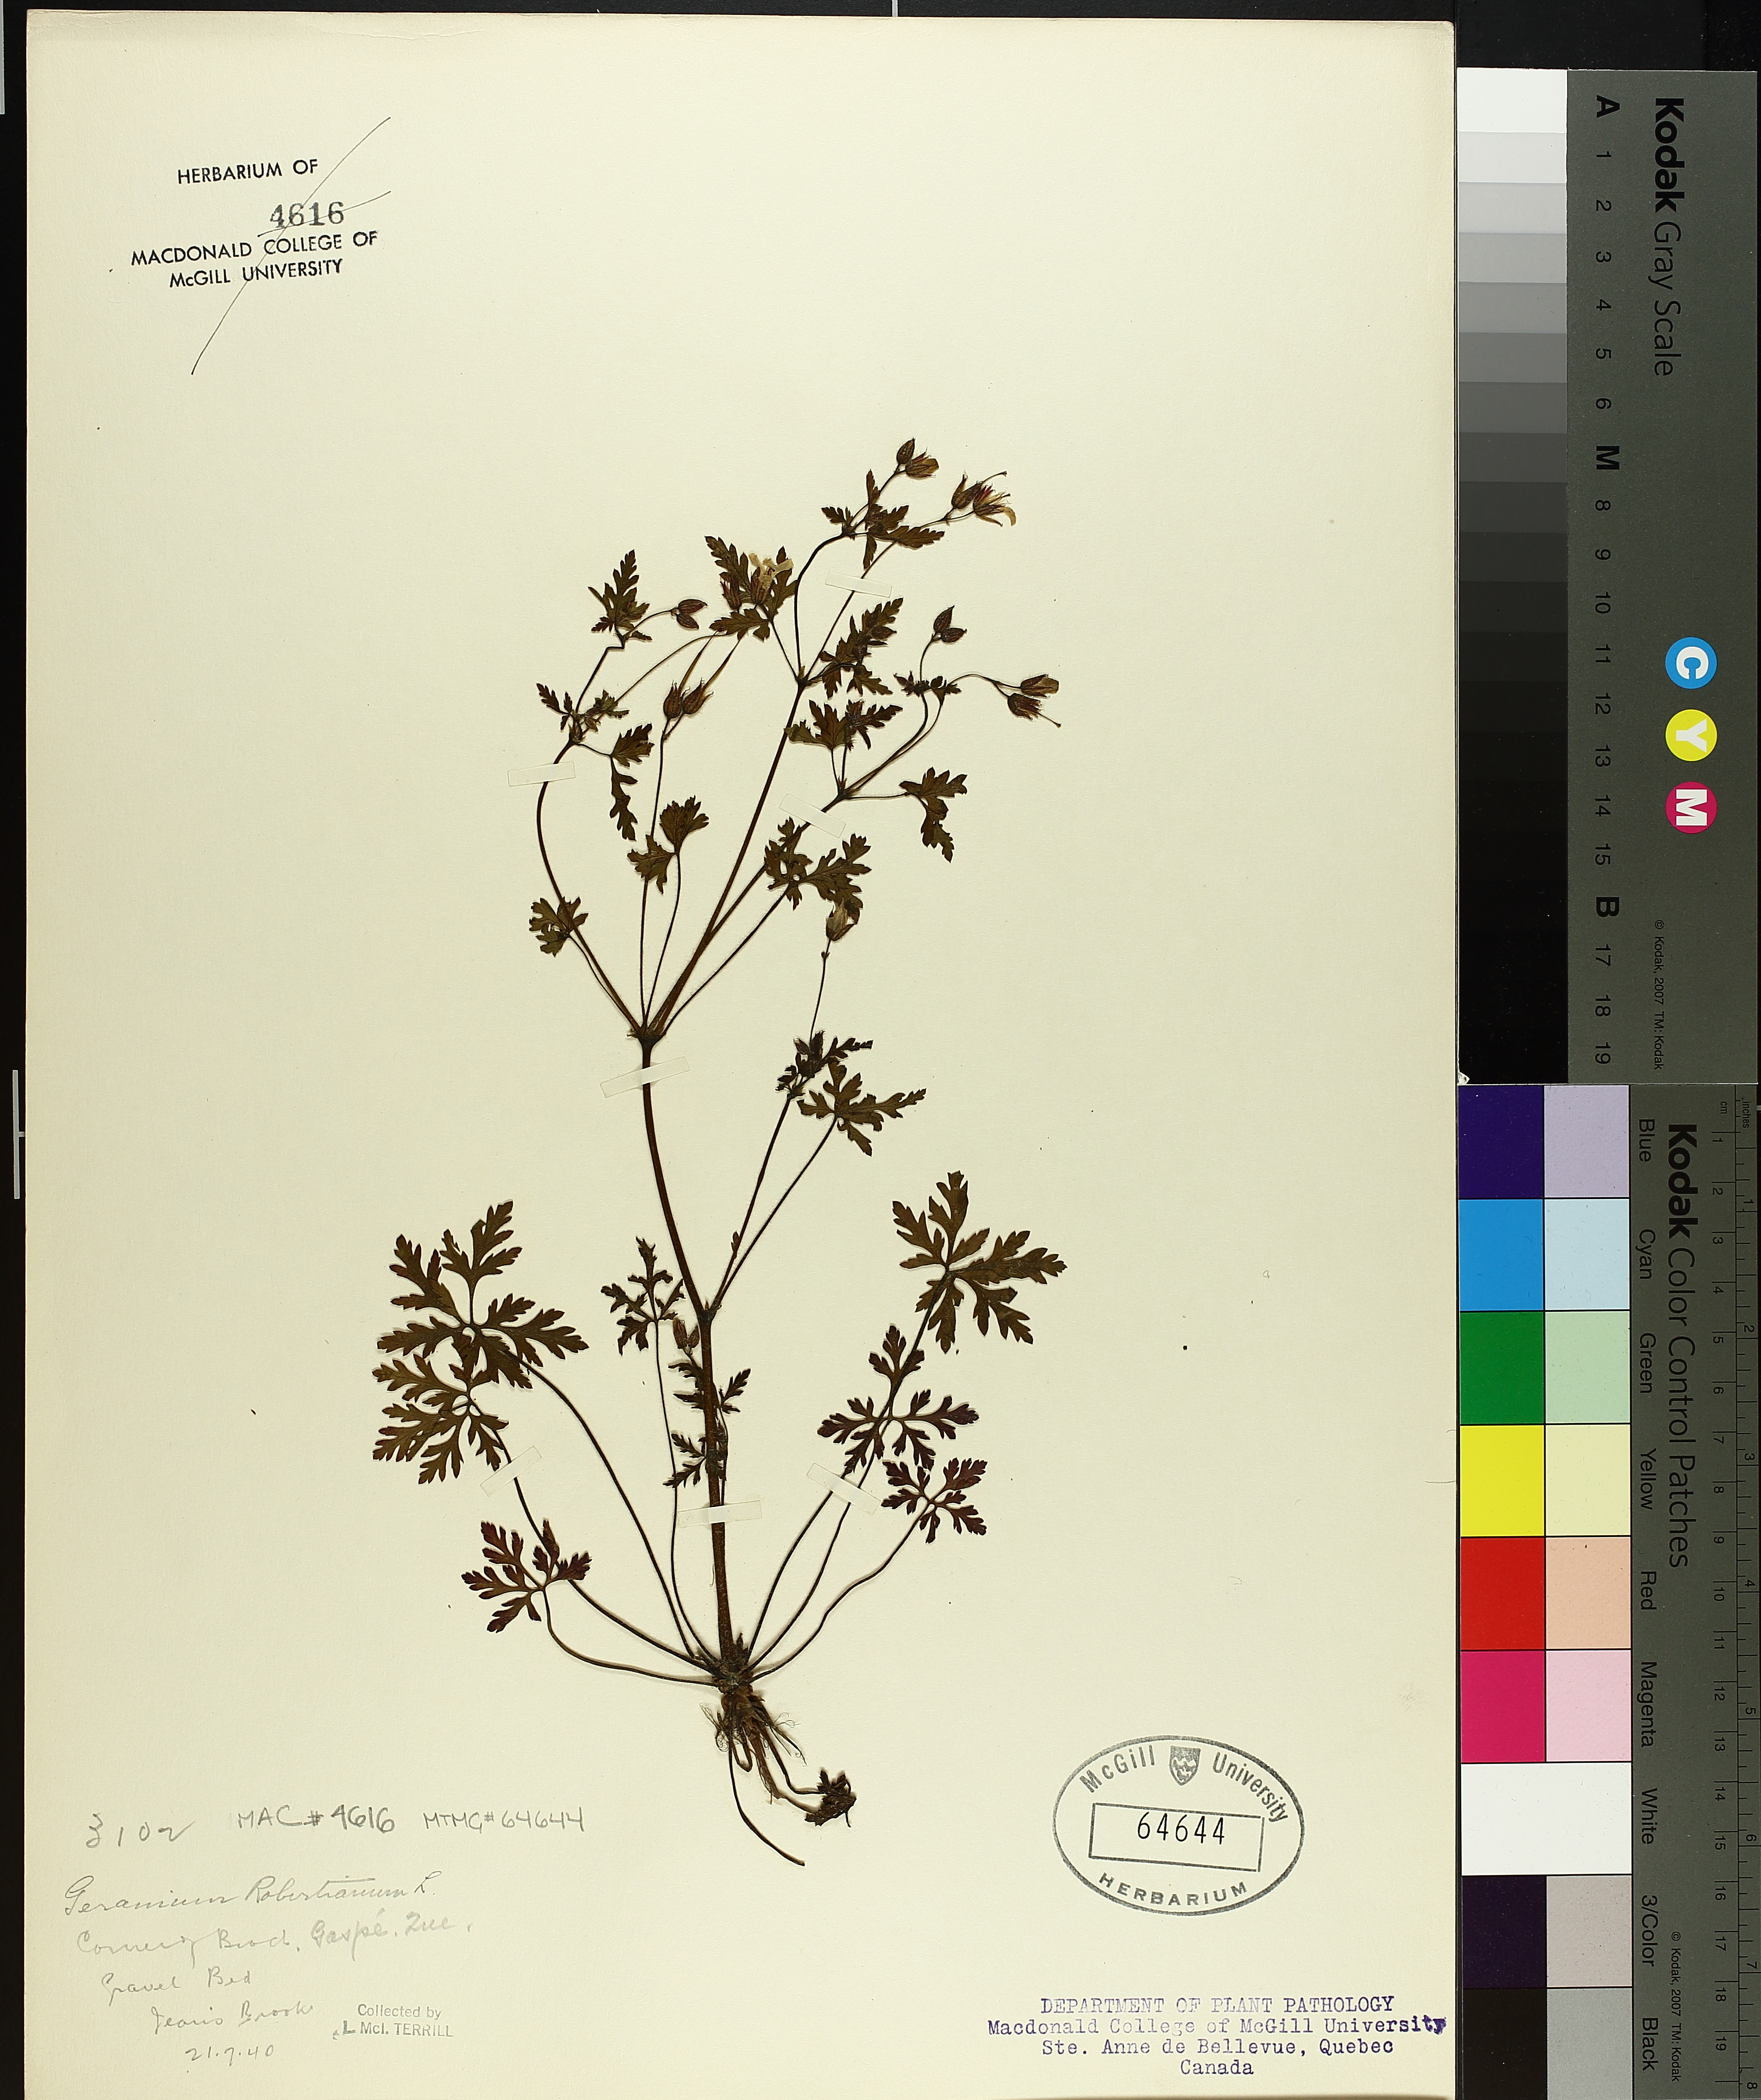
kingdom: Plantae
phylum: Tracheophyta
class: Magnoliopsida
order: Geraniales
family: Geraniaceae
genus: Geranium
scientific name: Geranium robertianum
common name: Herb-robert
